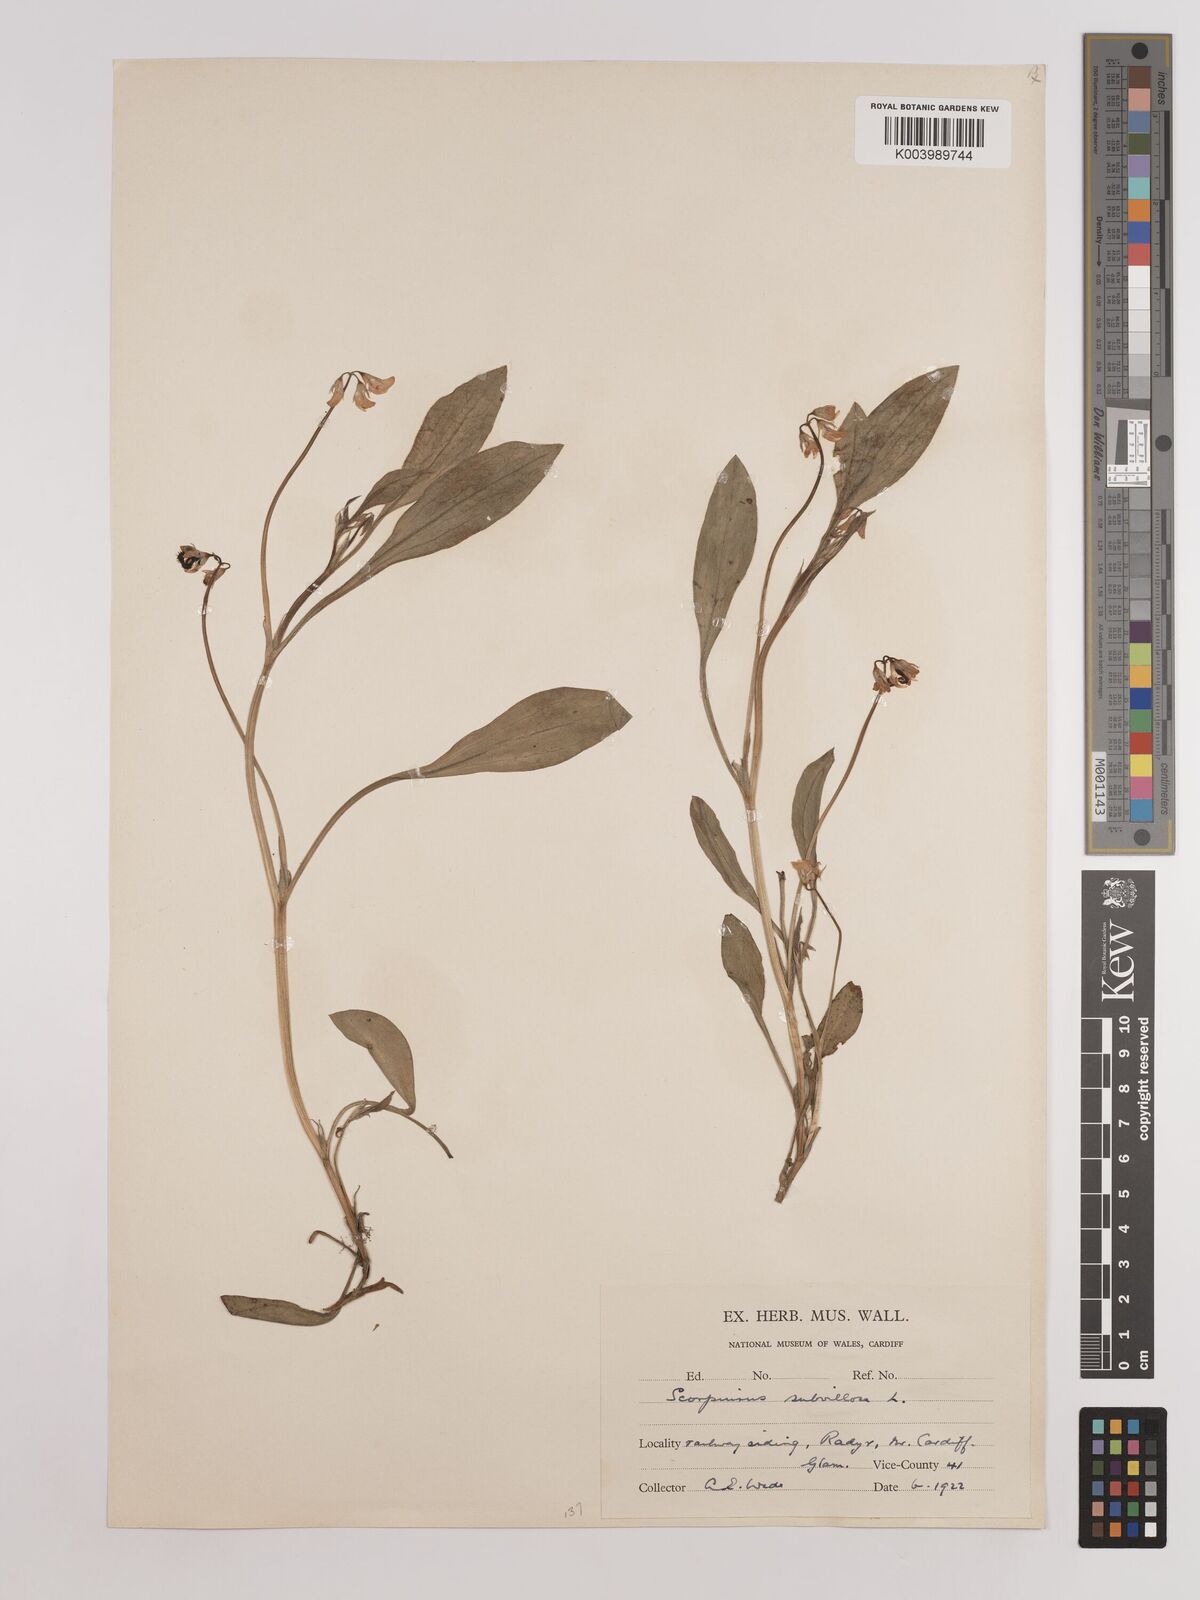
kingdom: Plantae
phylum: Tracheophyta
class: Magnoliopsida
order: Fabales
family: Fabaceae
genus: Scorpiurus
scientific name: Scorpiurus muricatus
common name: Caterpillar-plant
